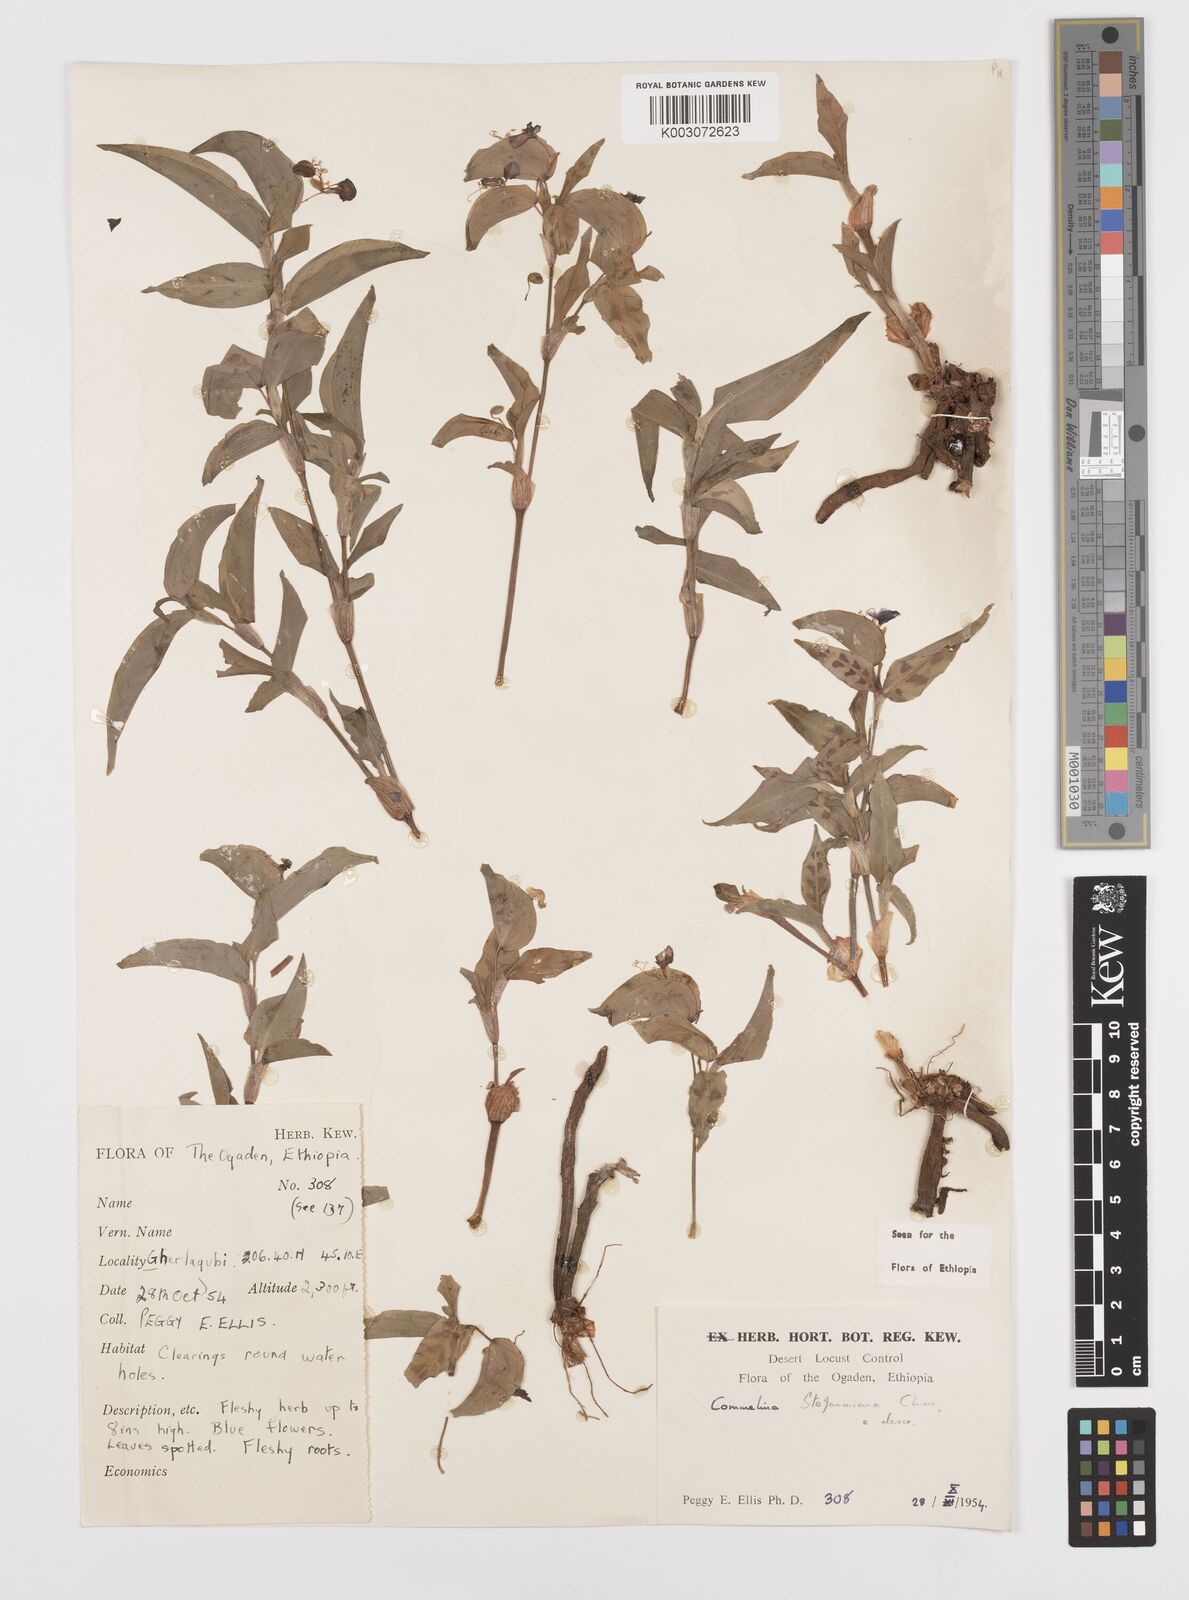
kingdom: Plantae
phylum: Tracheophyta
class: Liliopsida
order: Commelinales
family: Commelinaceae
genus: Commelina
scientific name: Commelina stefaniniana
